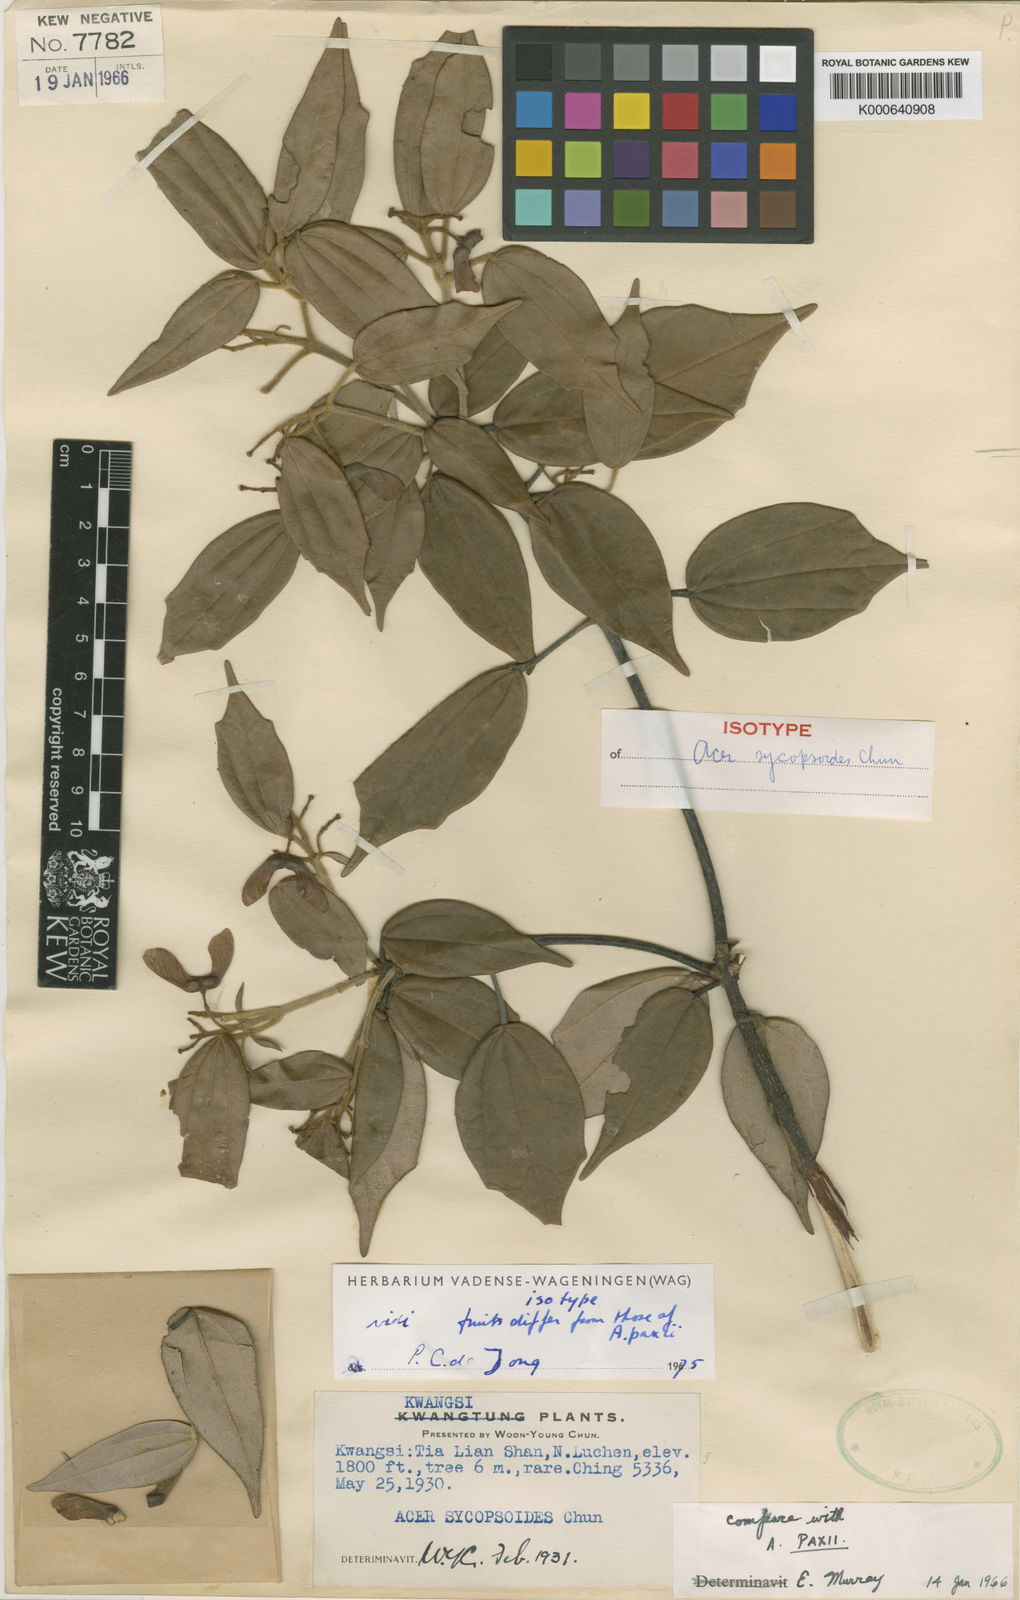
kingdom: Plantae
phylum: Tracheophyta
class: Magnoliopsida
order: Sapindales
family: Sapindaceae
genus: Acer
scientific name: Acer sycopseoides
